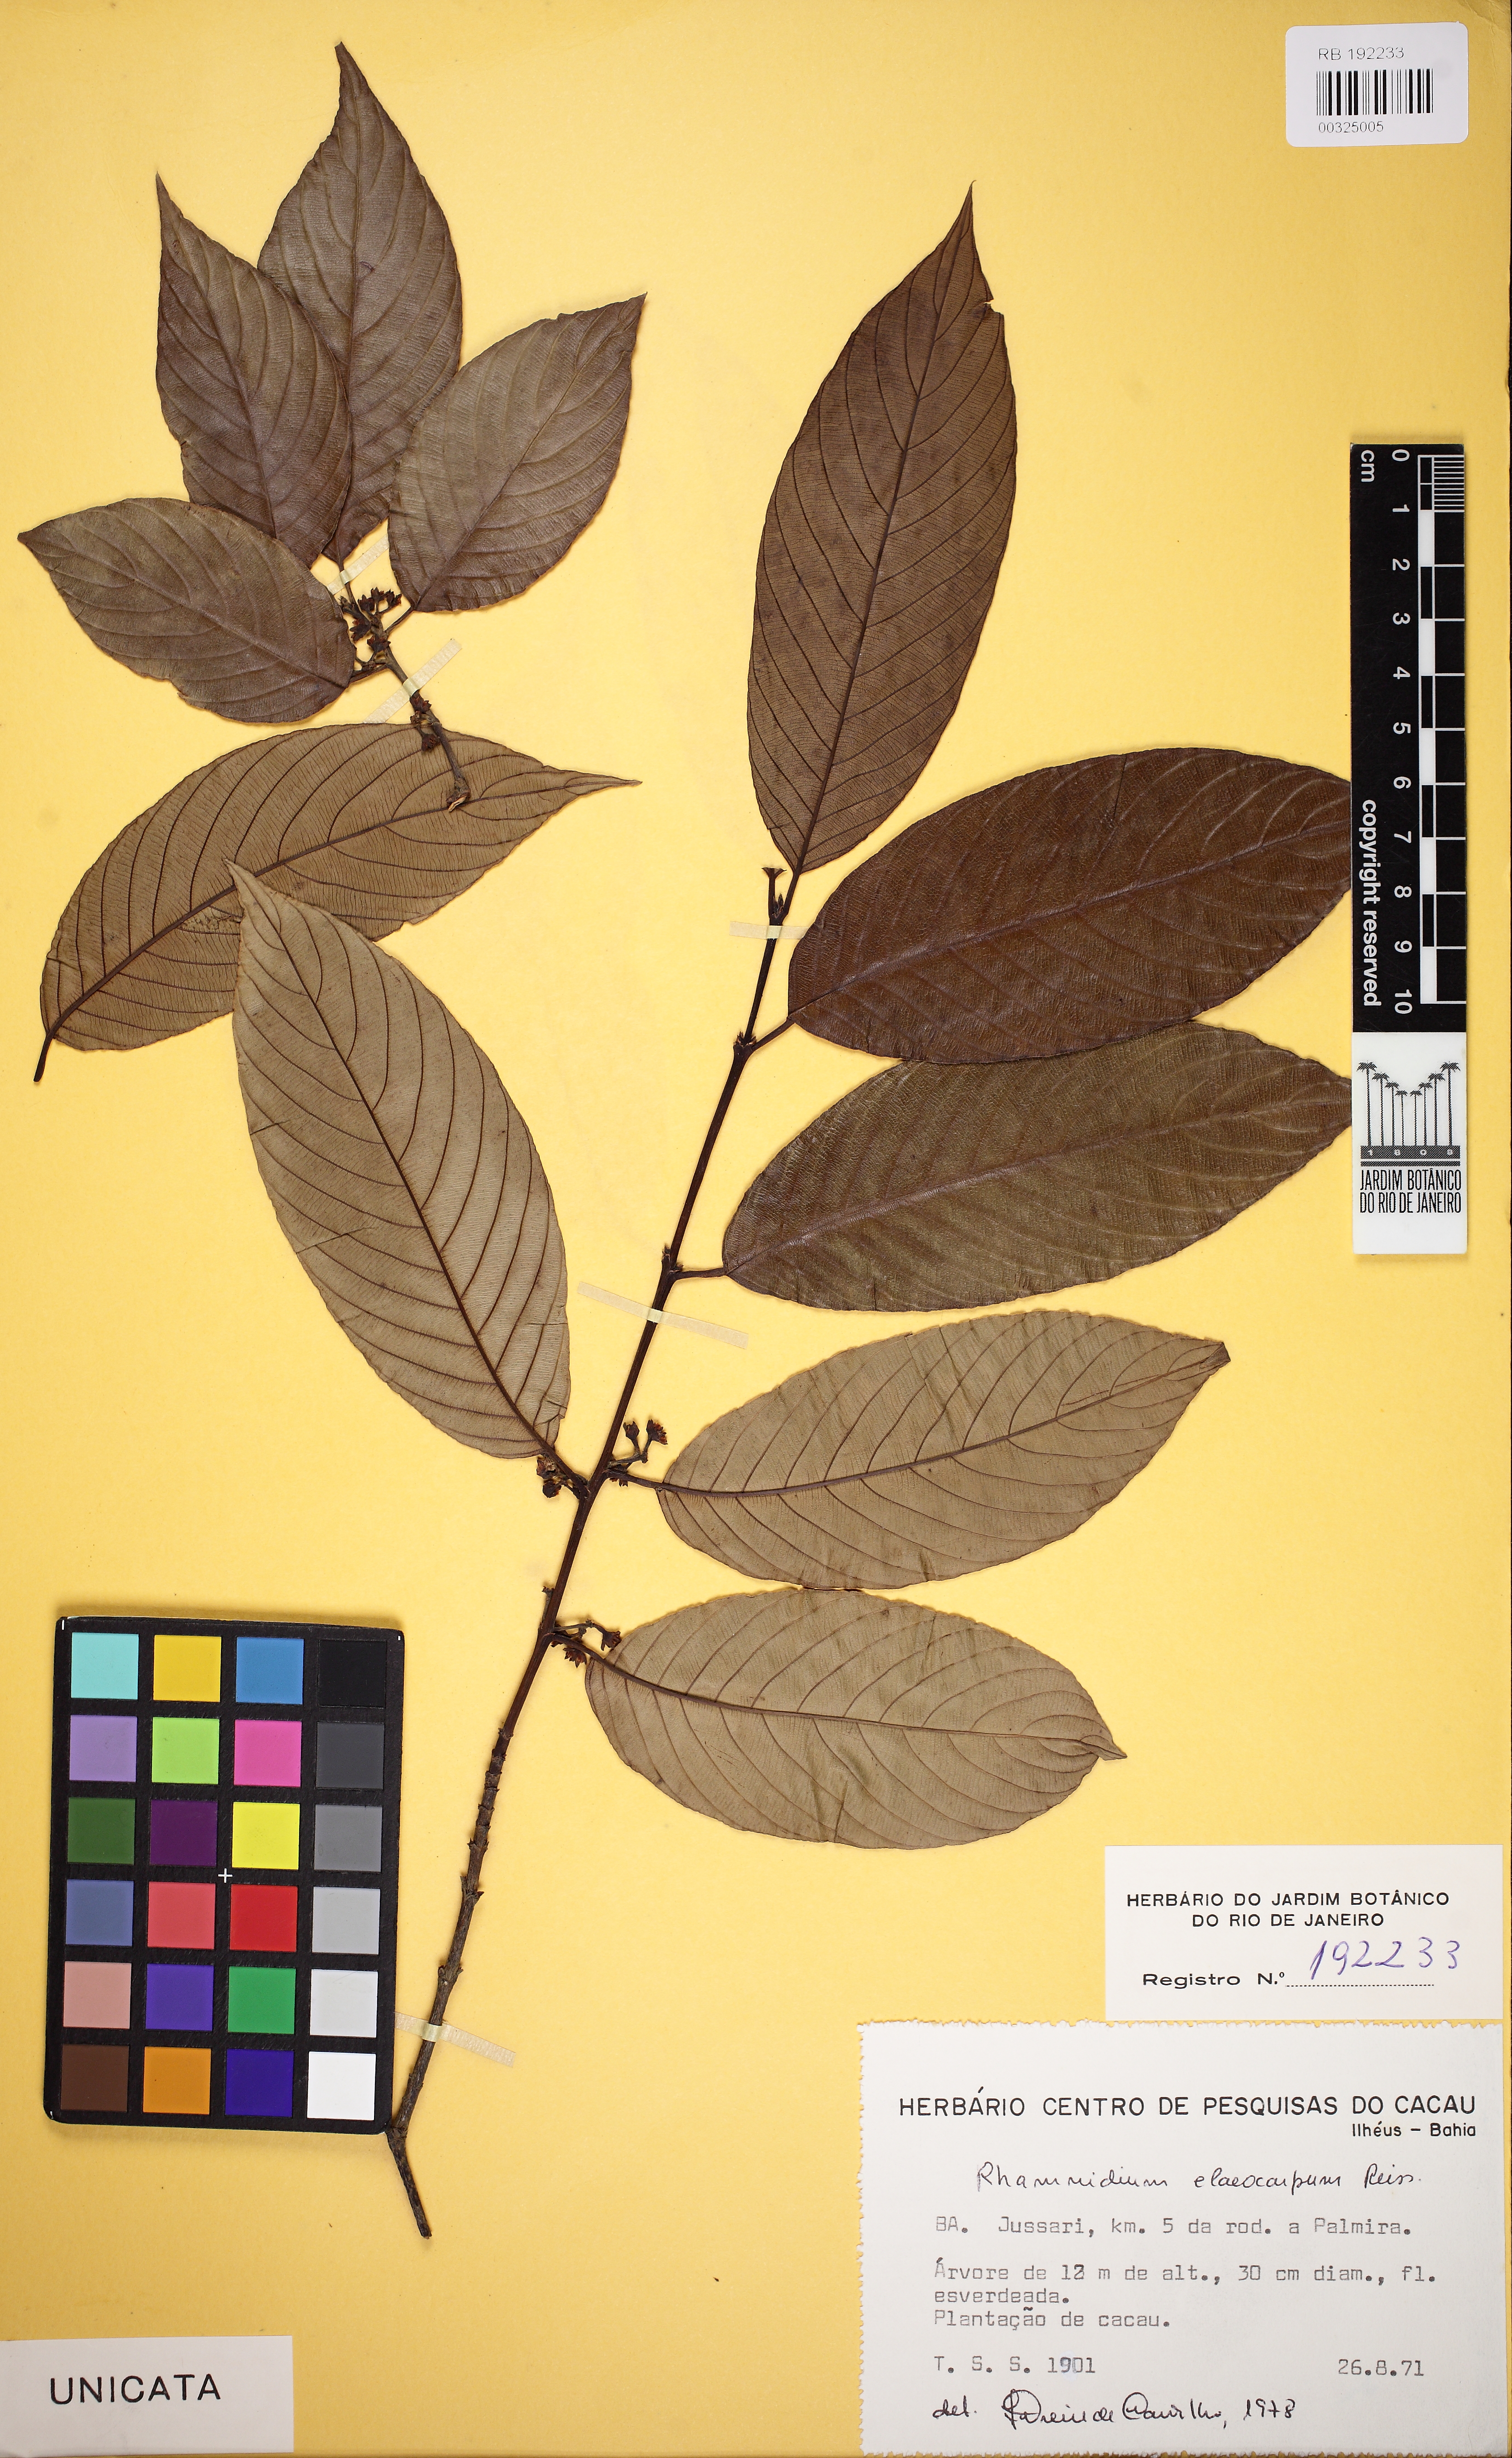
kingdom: Plantae
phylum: Tracheophyta
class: Magnoliopsida
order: Rosales
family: Rhamnaceae
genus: Rhamnidium
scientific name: Rhamnidium elaeocarpum
